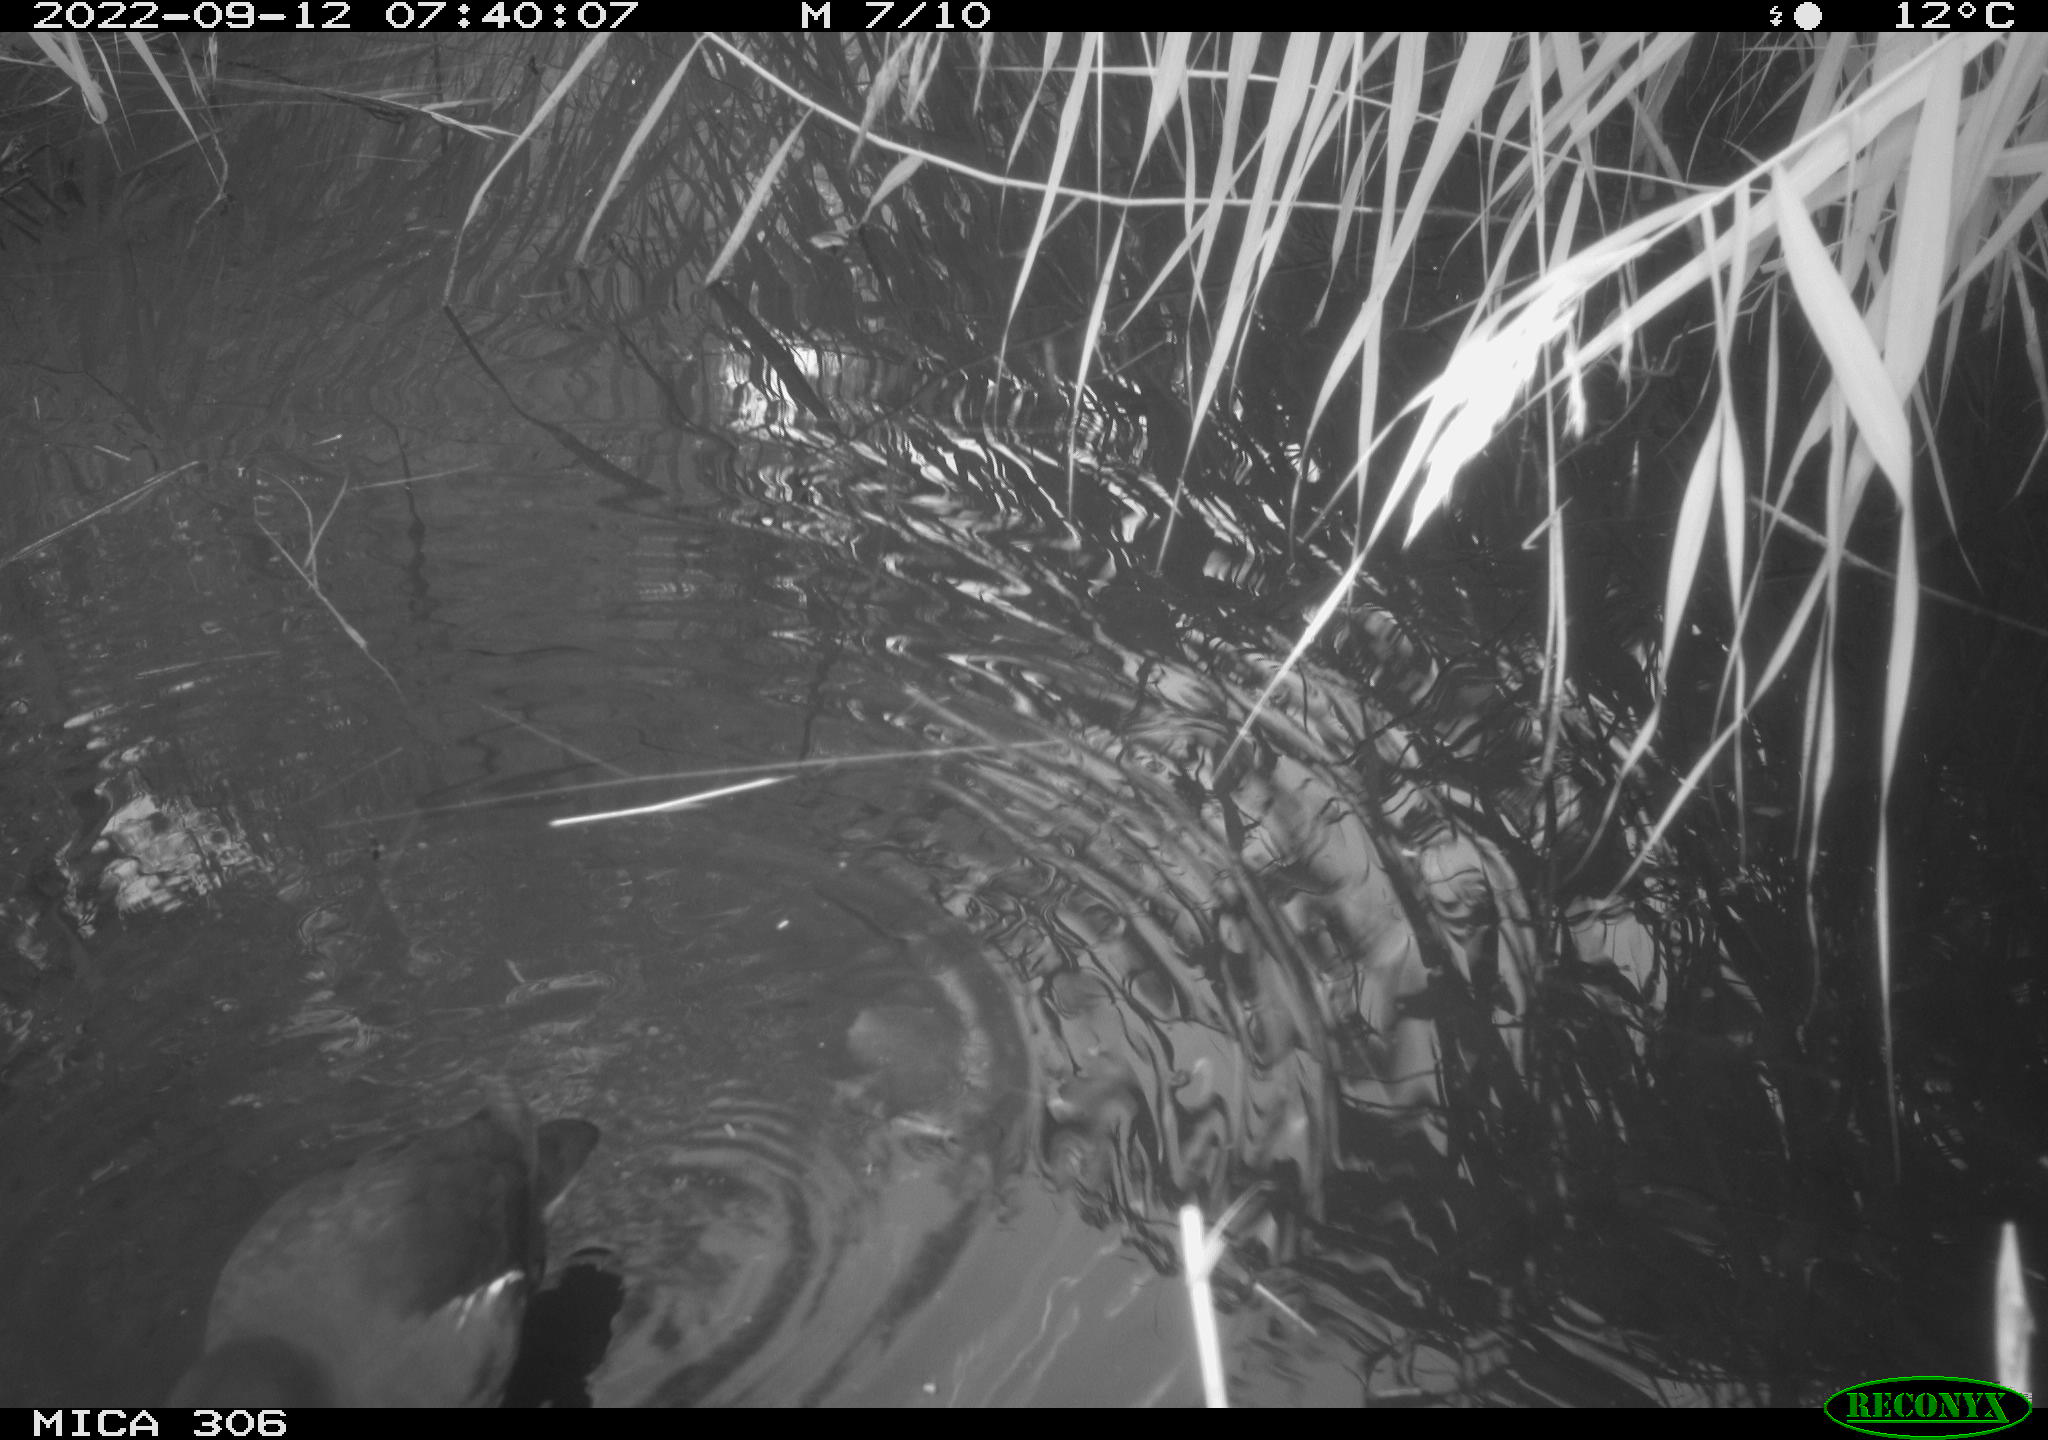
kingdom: Animalia
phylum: Chordata
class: Aves
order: Gruiformes
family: Rallidae
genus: Fulica
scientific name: Fulica atra
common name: Eurasian coot
